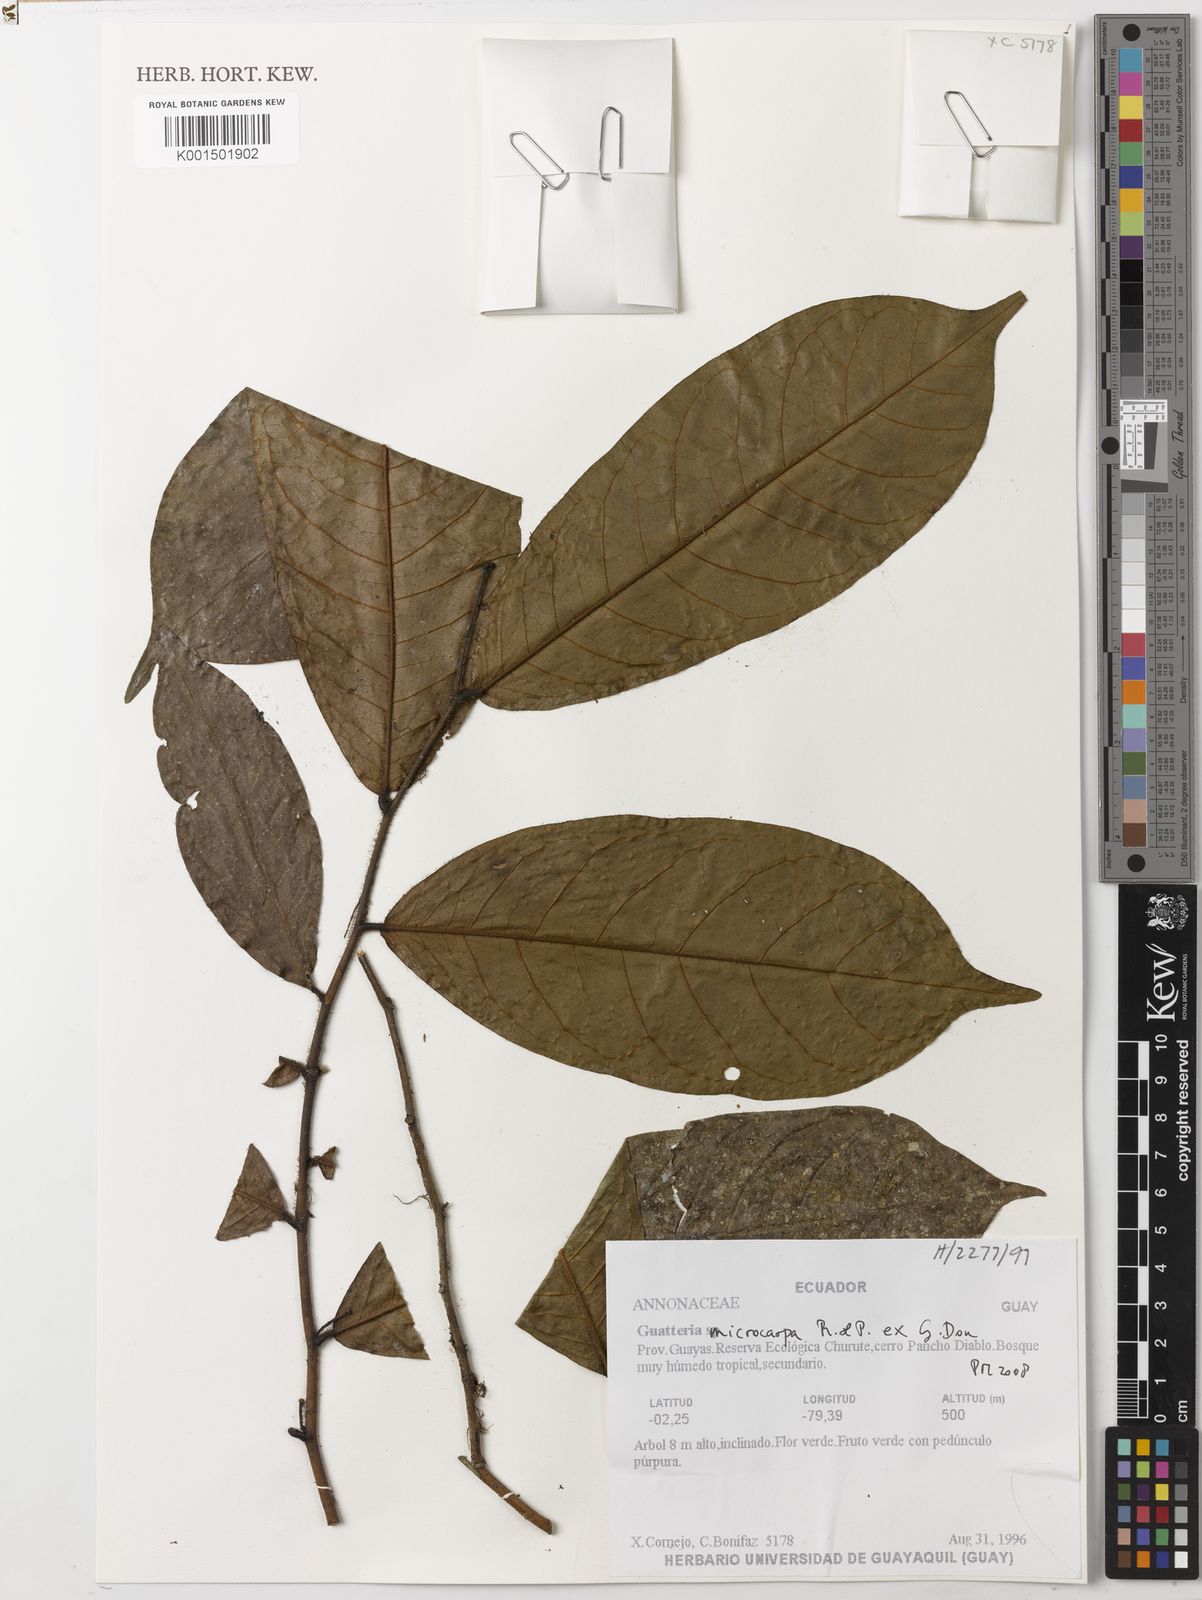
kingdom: Plantae
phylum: Tracheophyta
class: Magnoliopsida
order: Magnoliales
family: Annonaceae
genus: Guatteria
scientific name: Guatteria microcarpa
